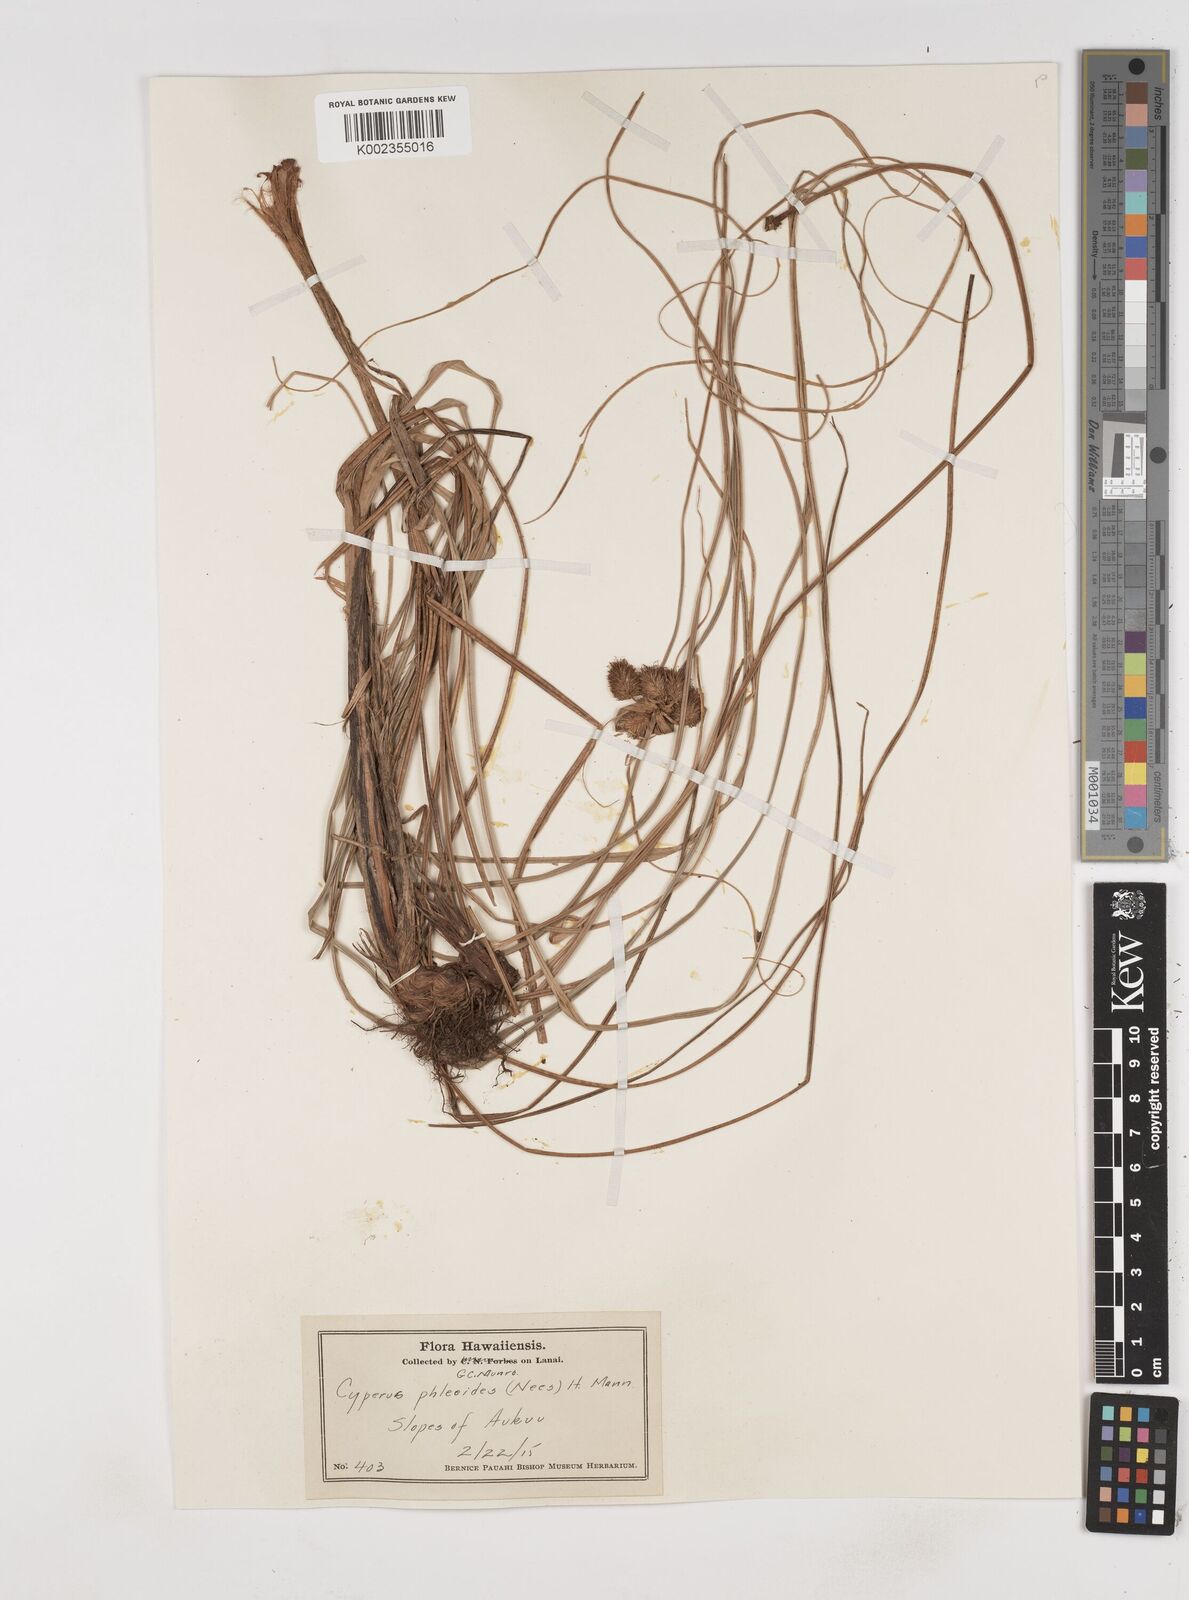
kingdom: Plantae
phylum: Tracheophyta
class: Liliopsida
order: Poales
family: Cyperaceae
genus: Cyperus
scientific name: Cyperus phleoides
